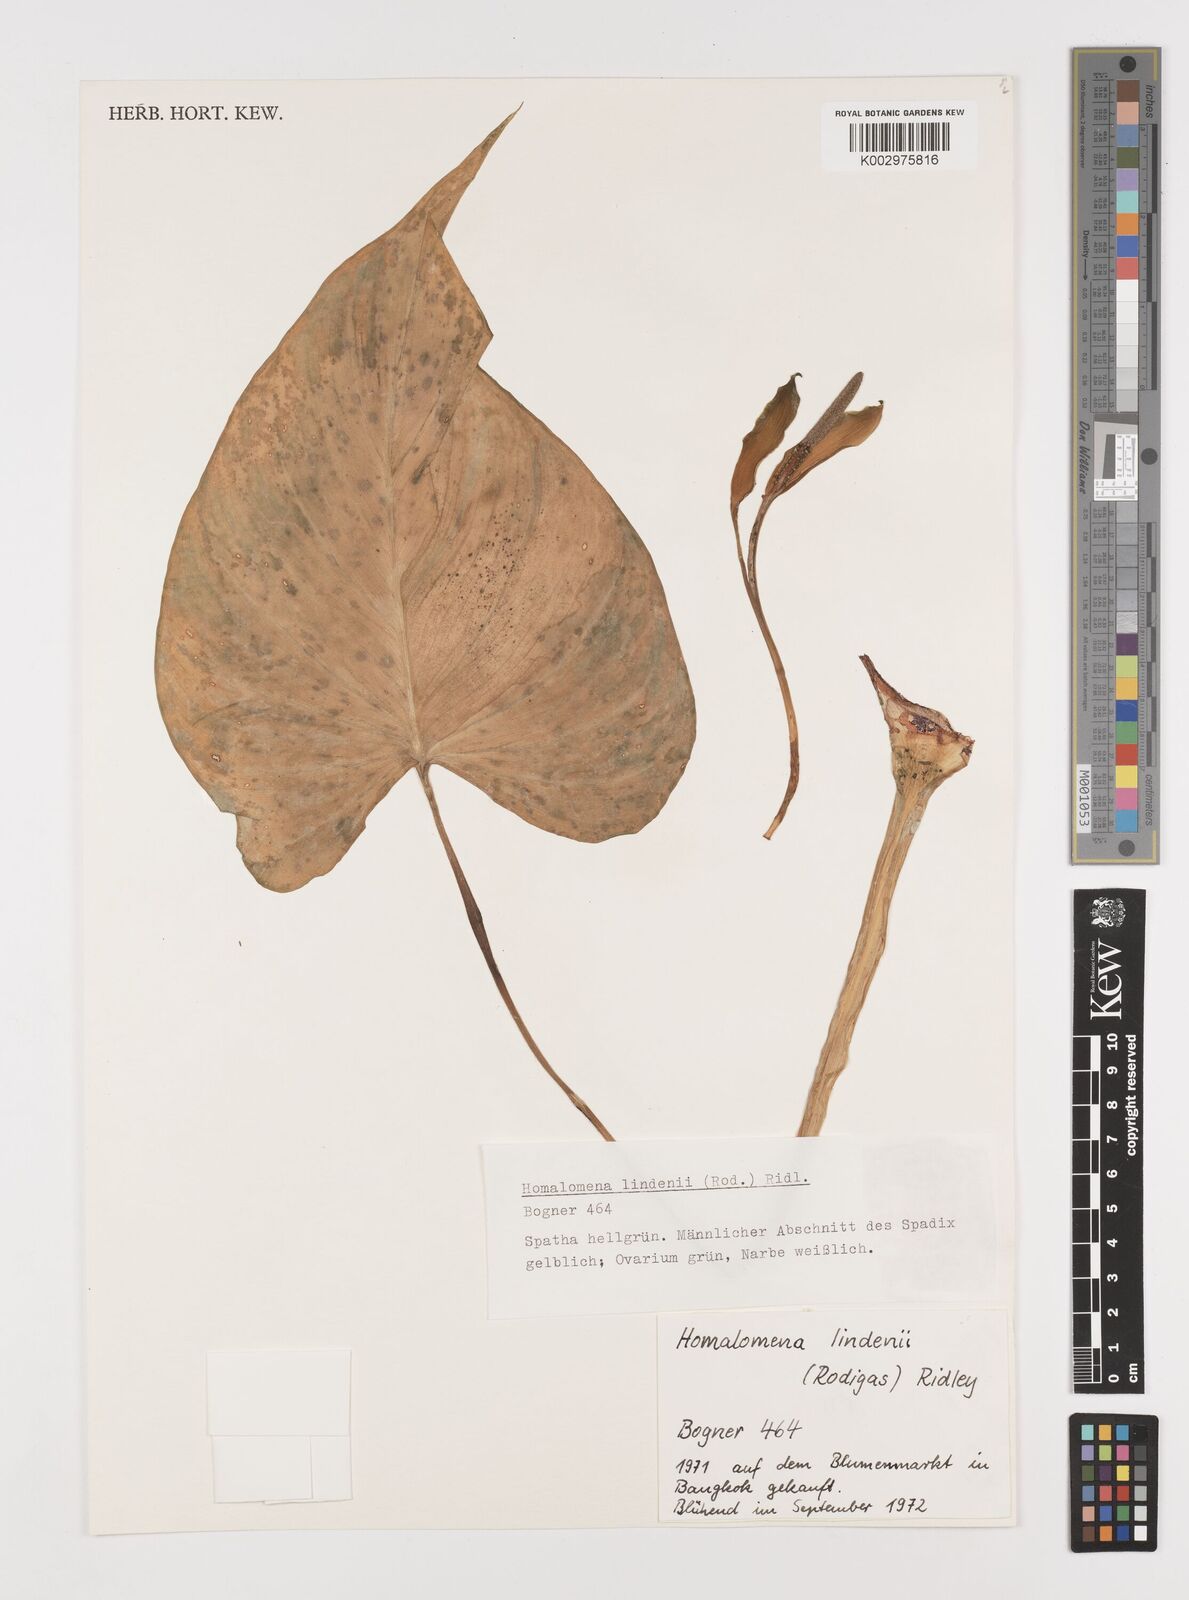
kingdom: Plantae
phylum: Tracheophyta
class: Liliopsida
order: Alismatales
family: Araceae
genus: Homalomena
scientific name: Homalomena lindenii
